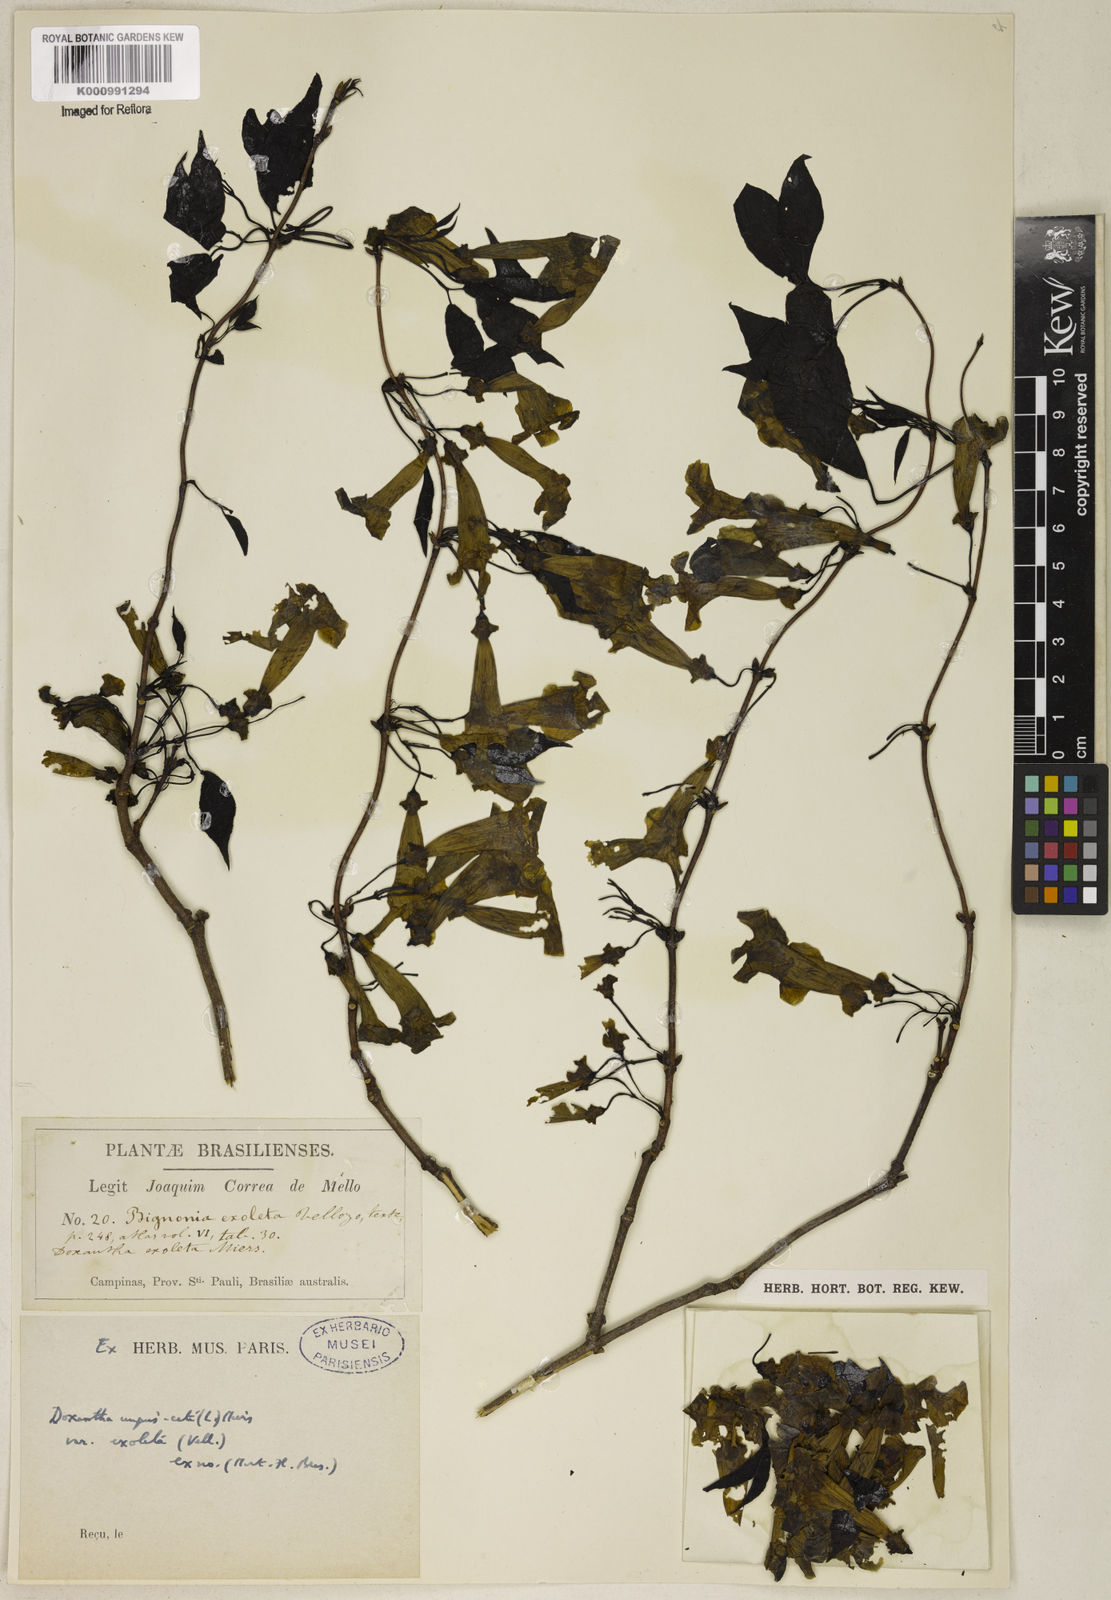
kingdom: Plantae
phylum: Tracheophyta
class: Magnoliopsida
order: Lamiales
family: Bignoniaceae
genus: Dolichandra
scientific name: Dolichandra unguis-cati
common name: Catclaw vine
